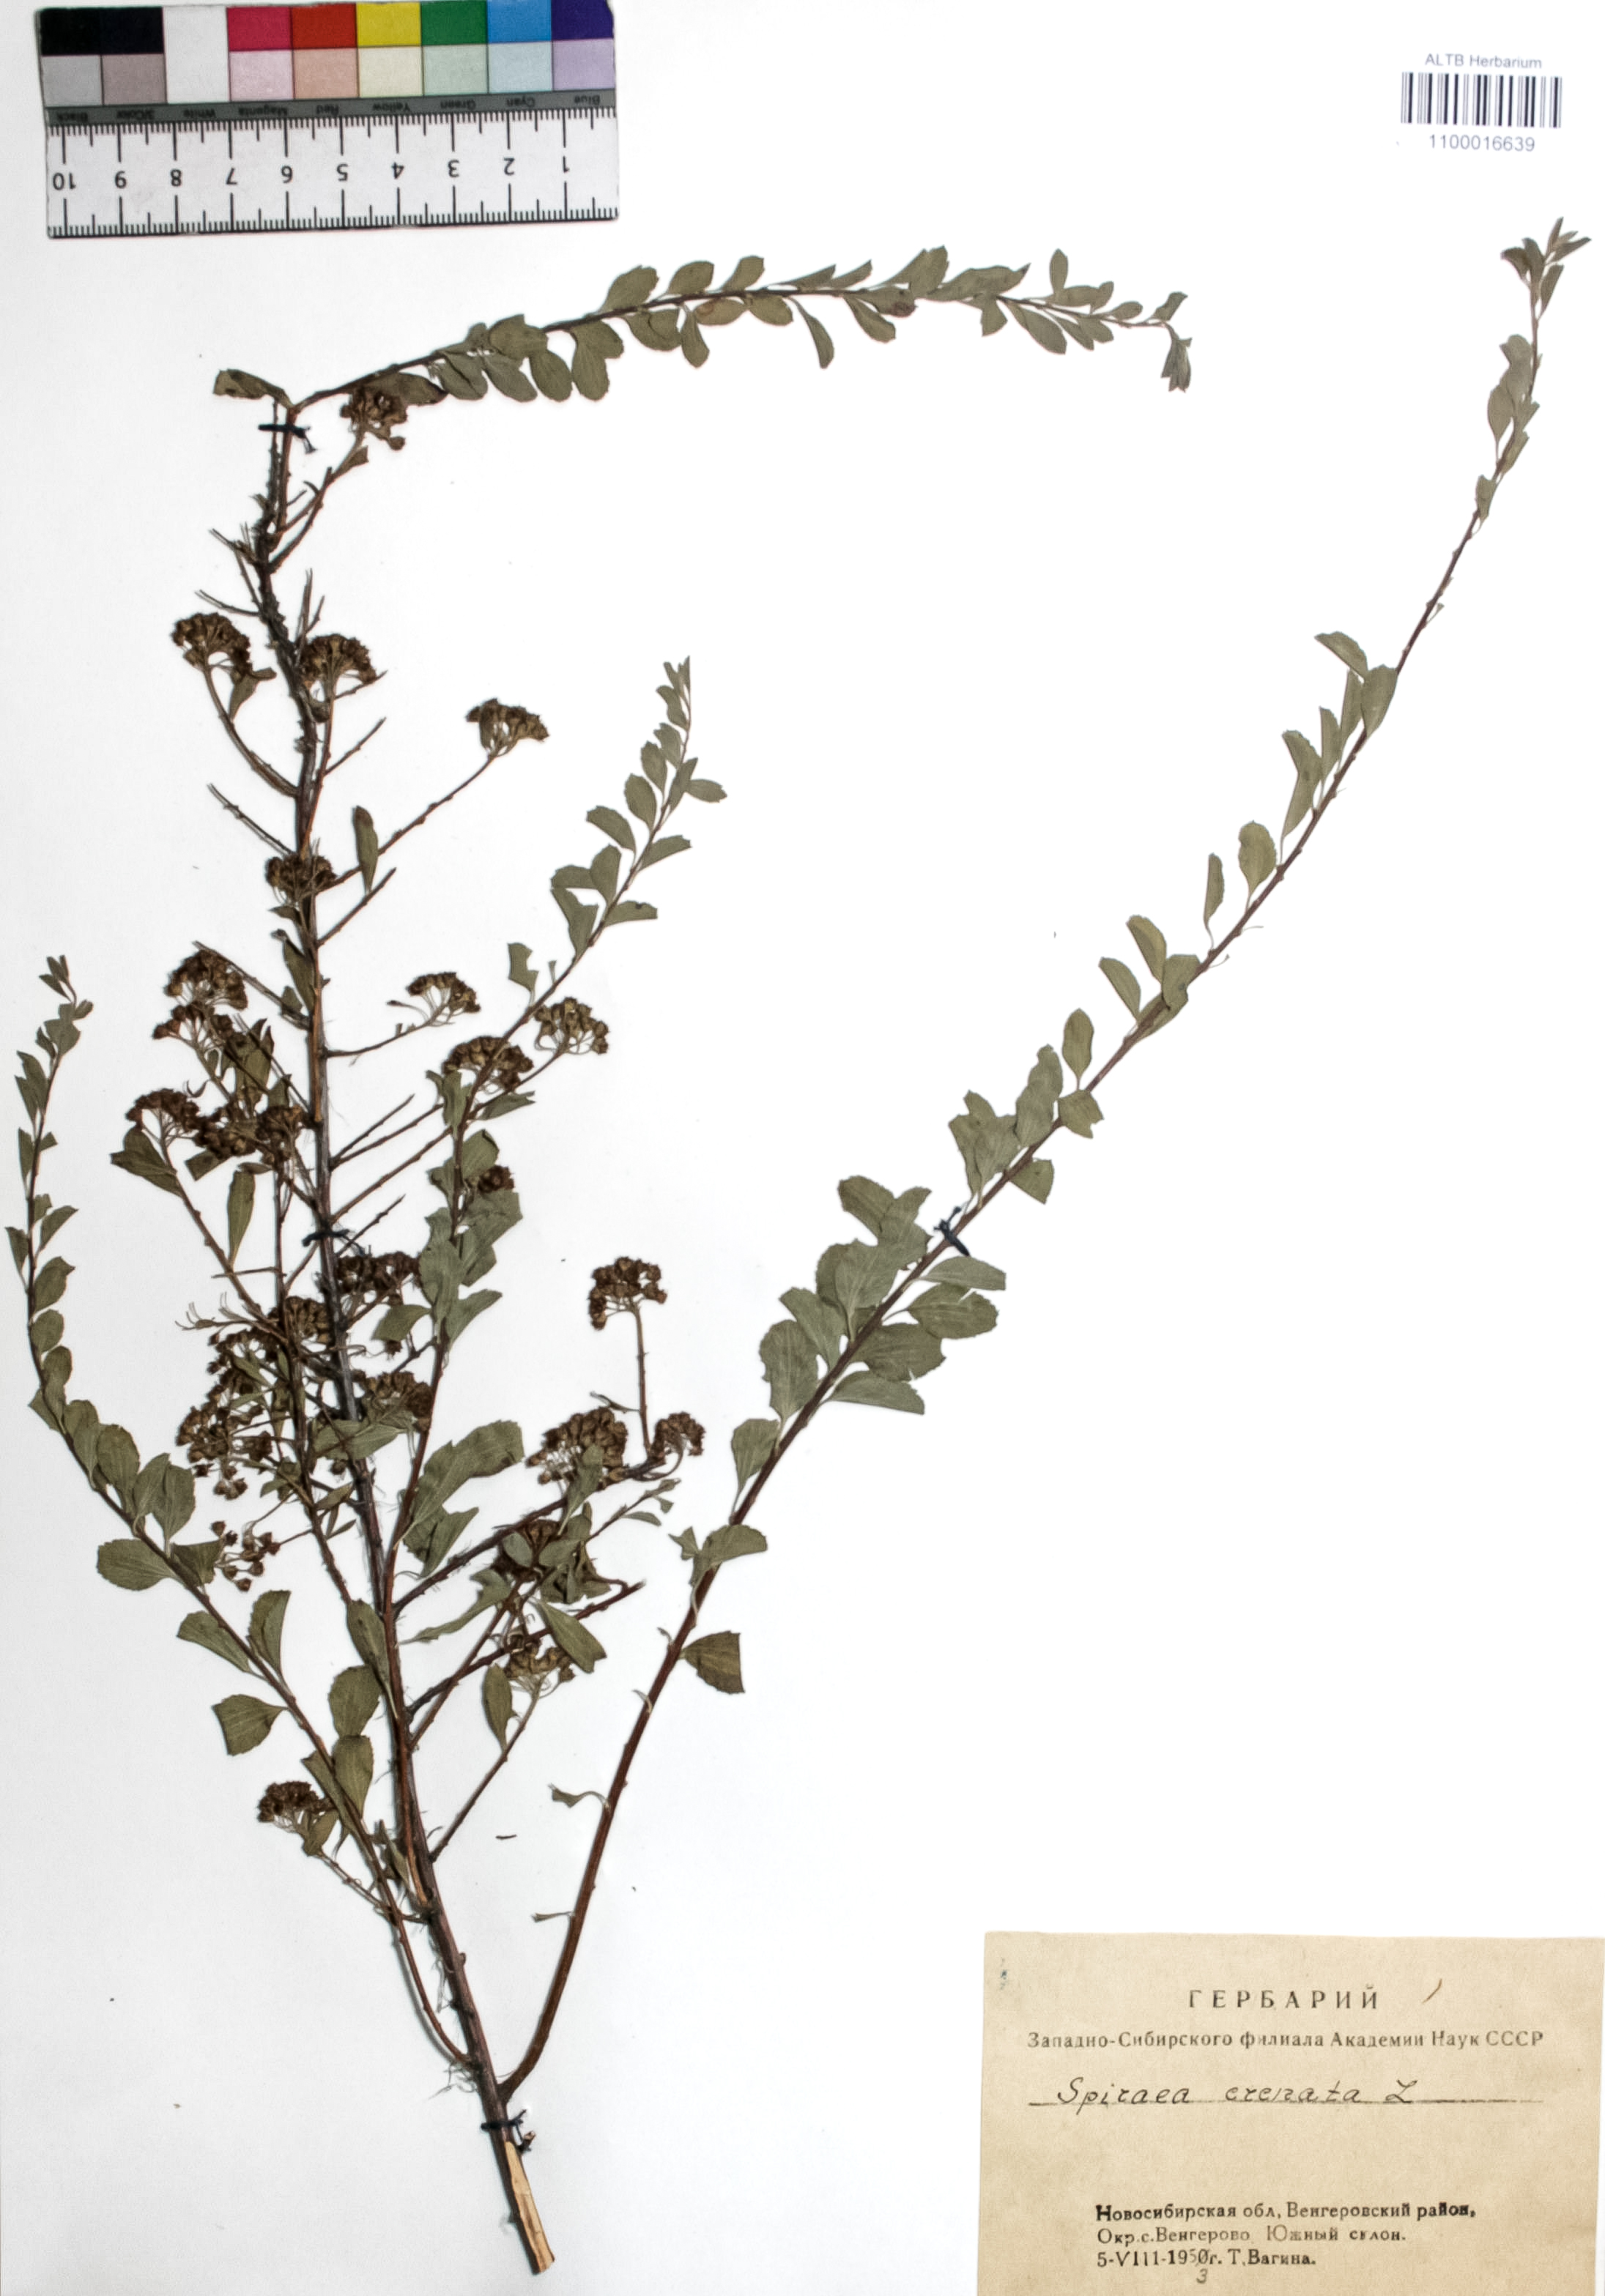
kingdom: Plantae
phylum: Tracheophyta
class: Magnoliopsida
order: Rosales
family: Rosaceae
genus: Spiraea
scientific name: Spiraea crenata
